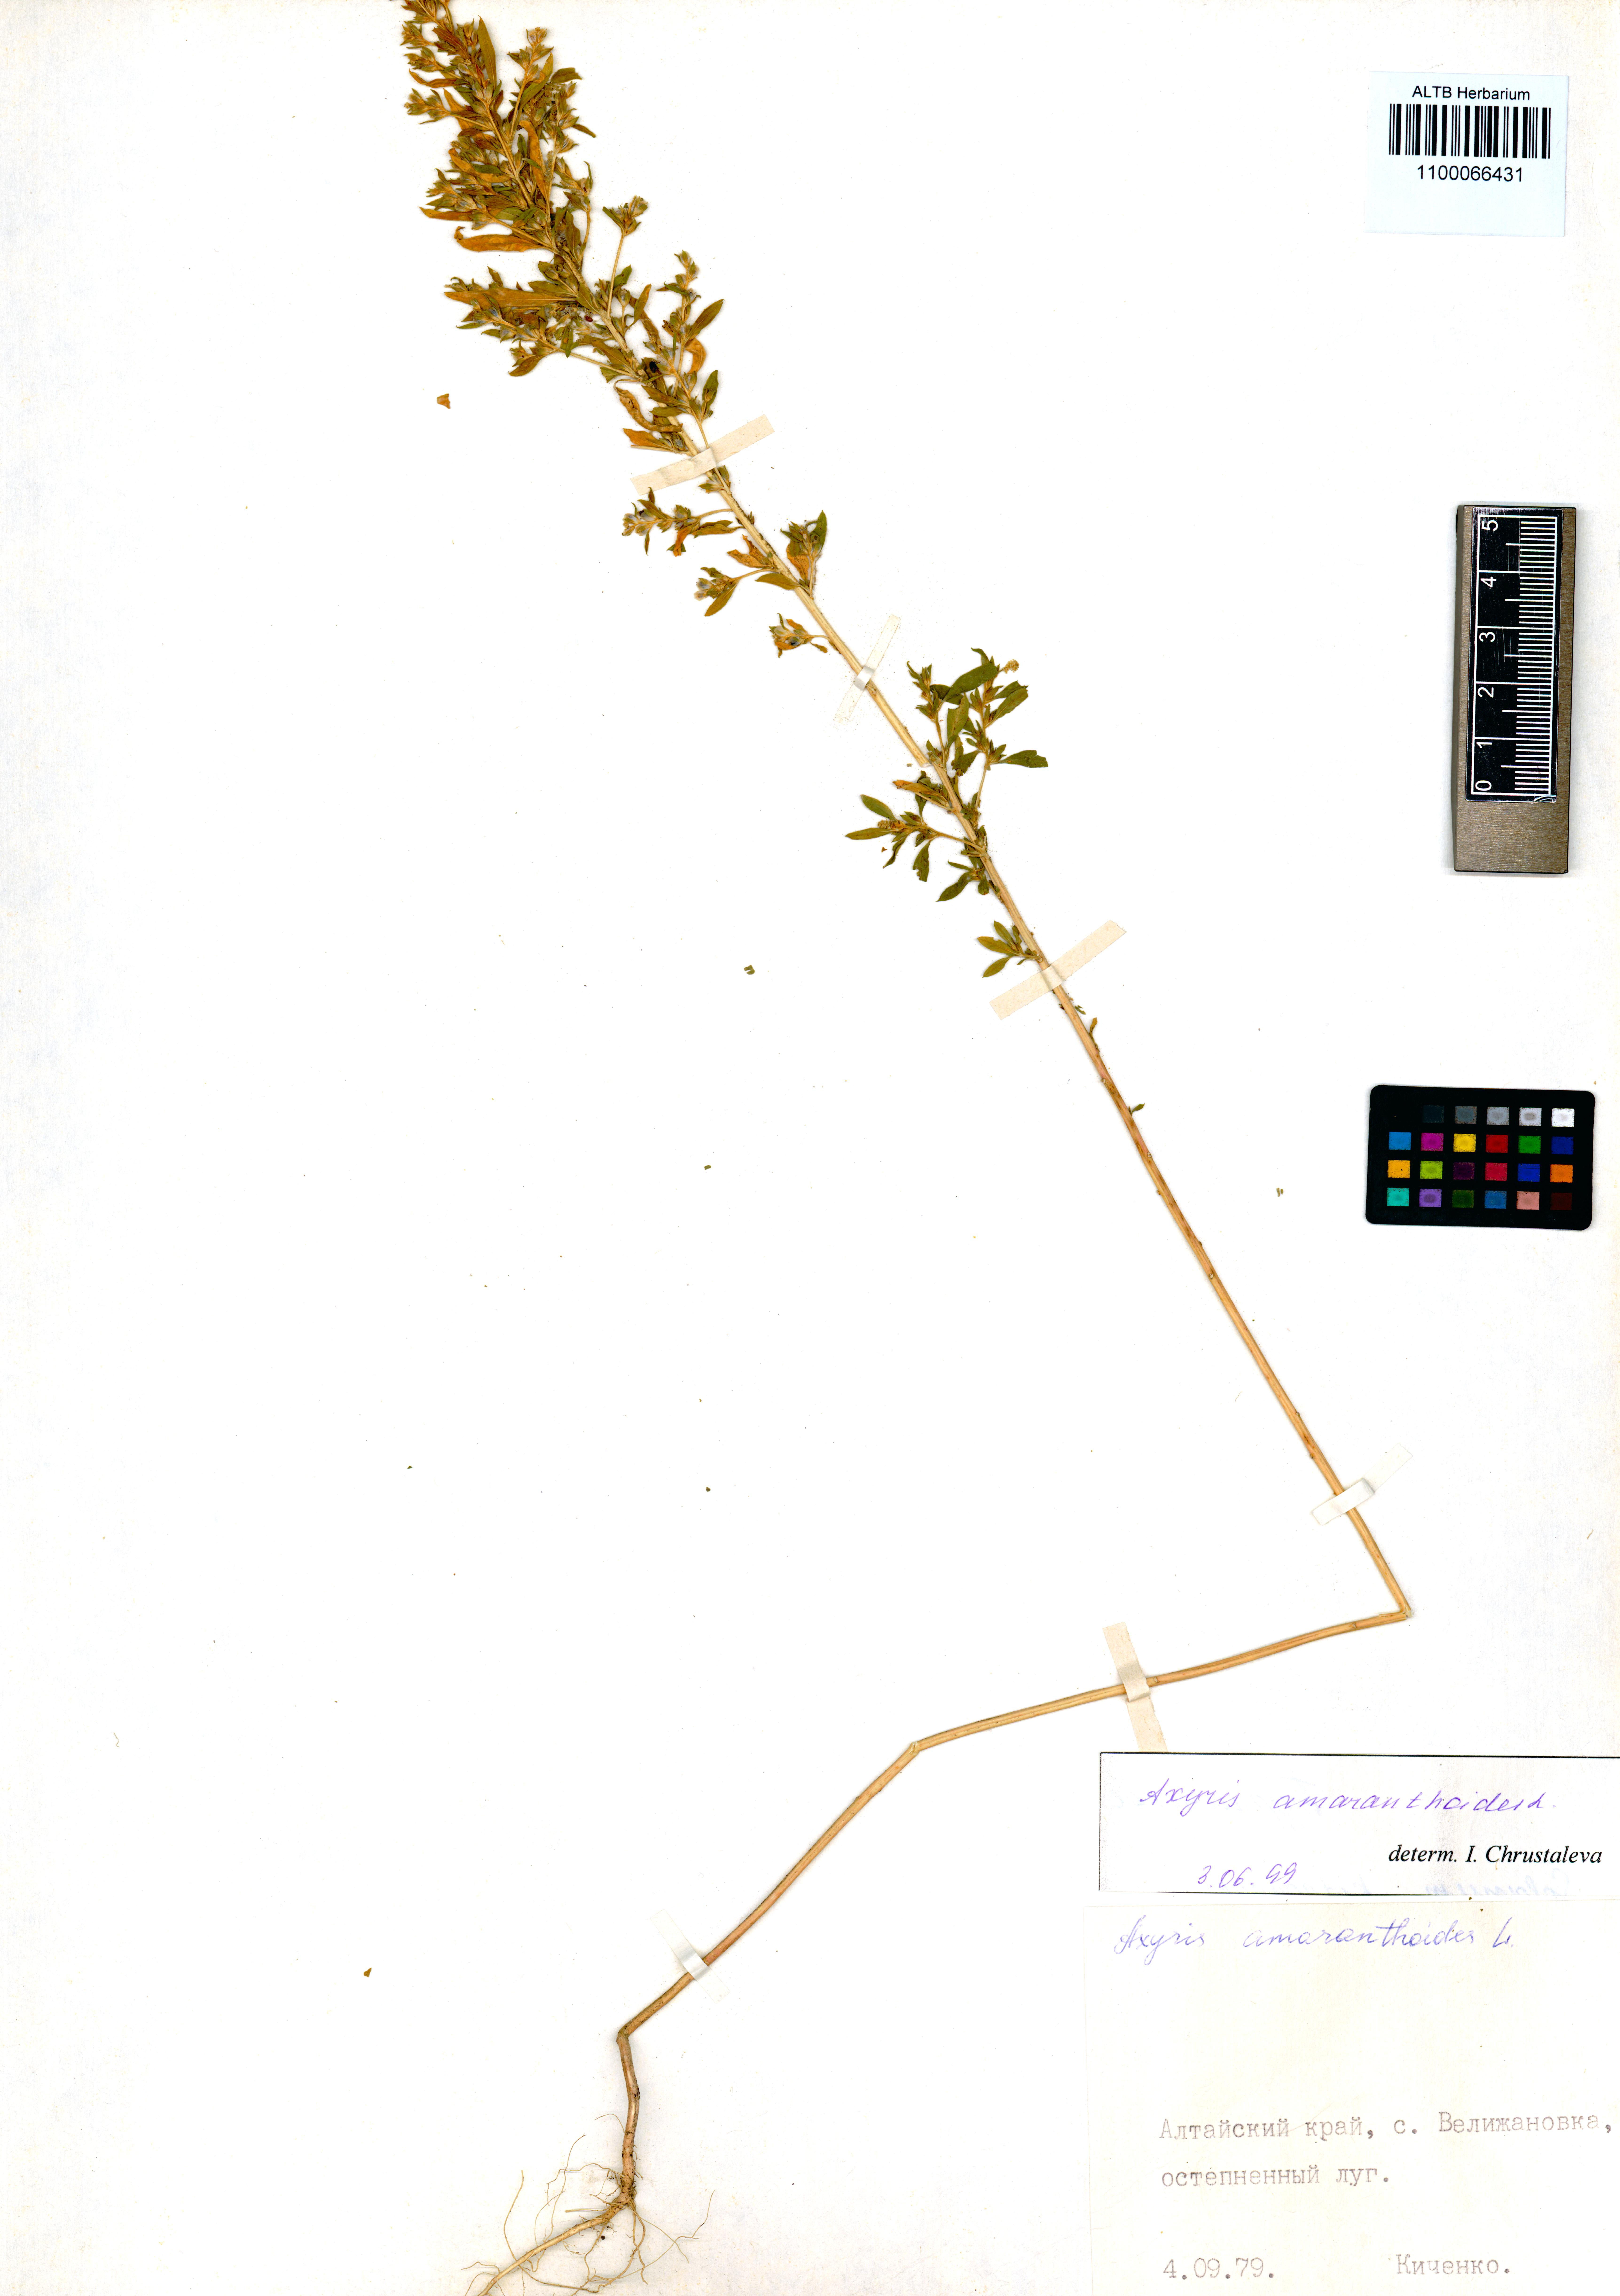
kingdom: Plantae
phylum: Tracheophyta
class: Magnoliopsida
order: Caryophyllales
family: Amaranthaceae
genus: Axyris
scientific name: Axyris amaranthoides
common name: Russian pigweed
